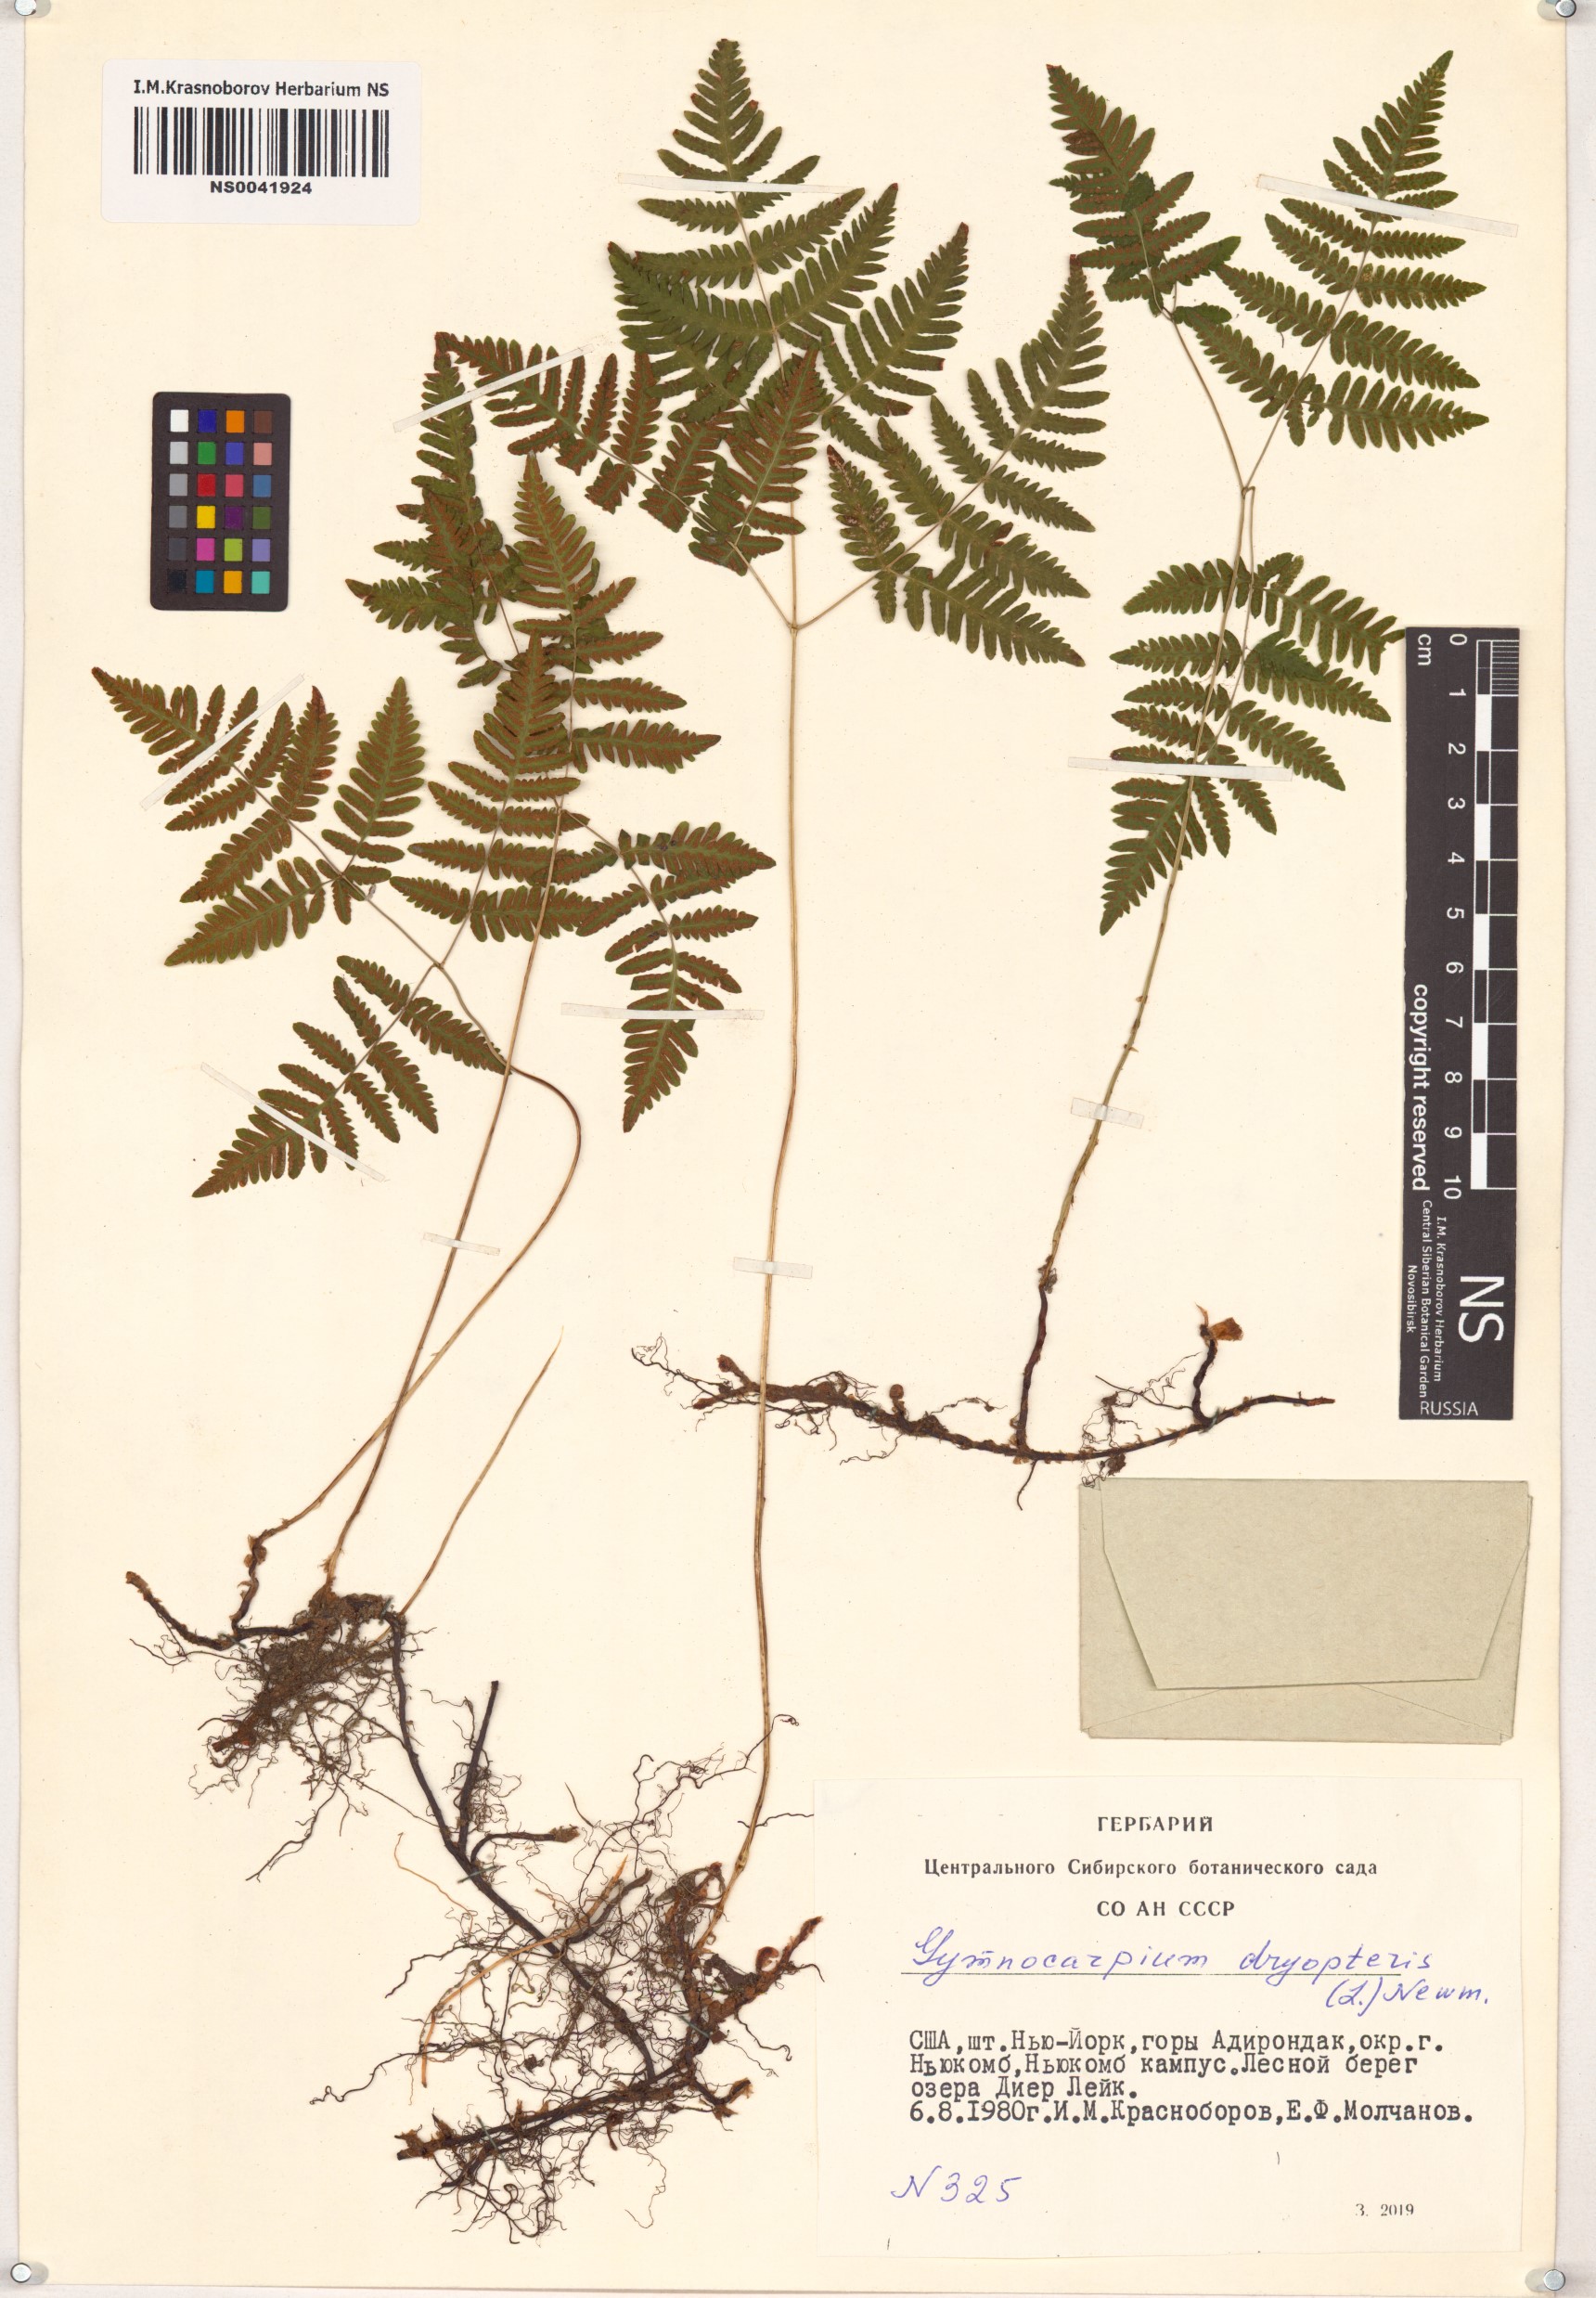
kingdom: Plantae
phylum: Tracheophyta
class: Polypodiopsida
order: Polypodiales
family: Cystopteridaceae
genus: Gymnocarpium
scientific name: Gymnocarpium dryopteris
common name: Oak fern
